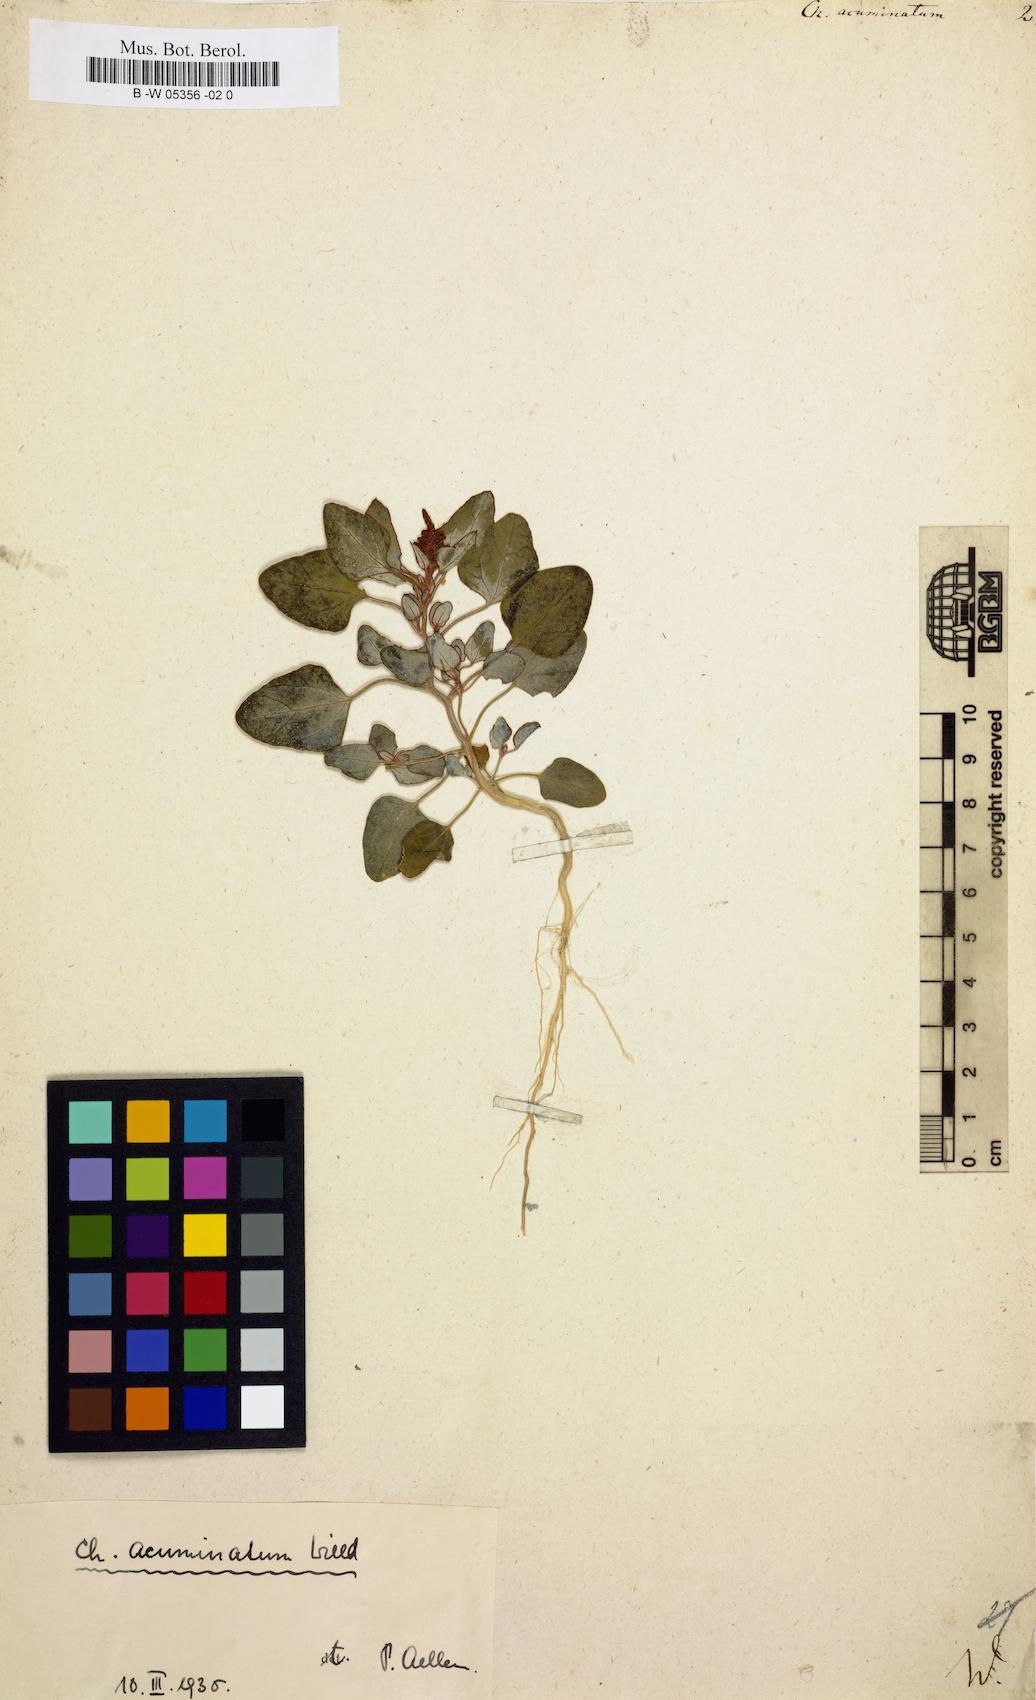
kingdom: Plantae
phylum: Tracheophyta
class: Magnoliopsida
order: Caryophyllales
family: Amaranthaceae
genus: Chenopodium
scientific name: Chenopodium acuminatum
